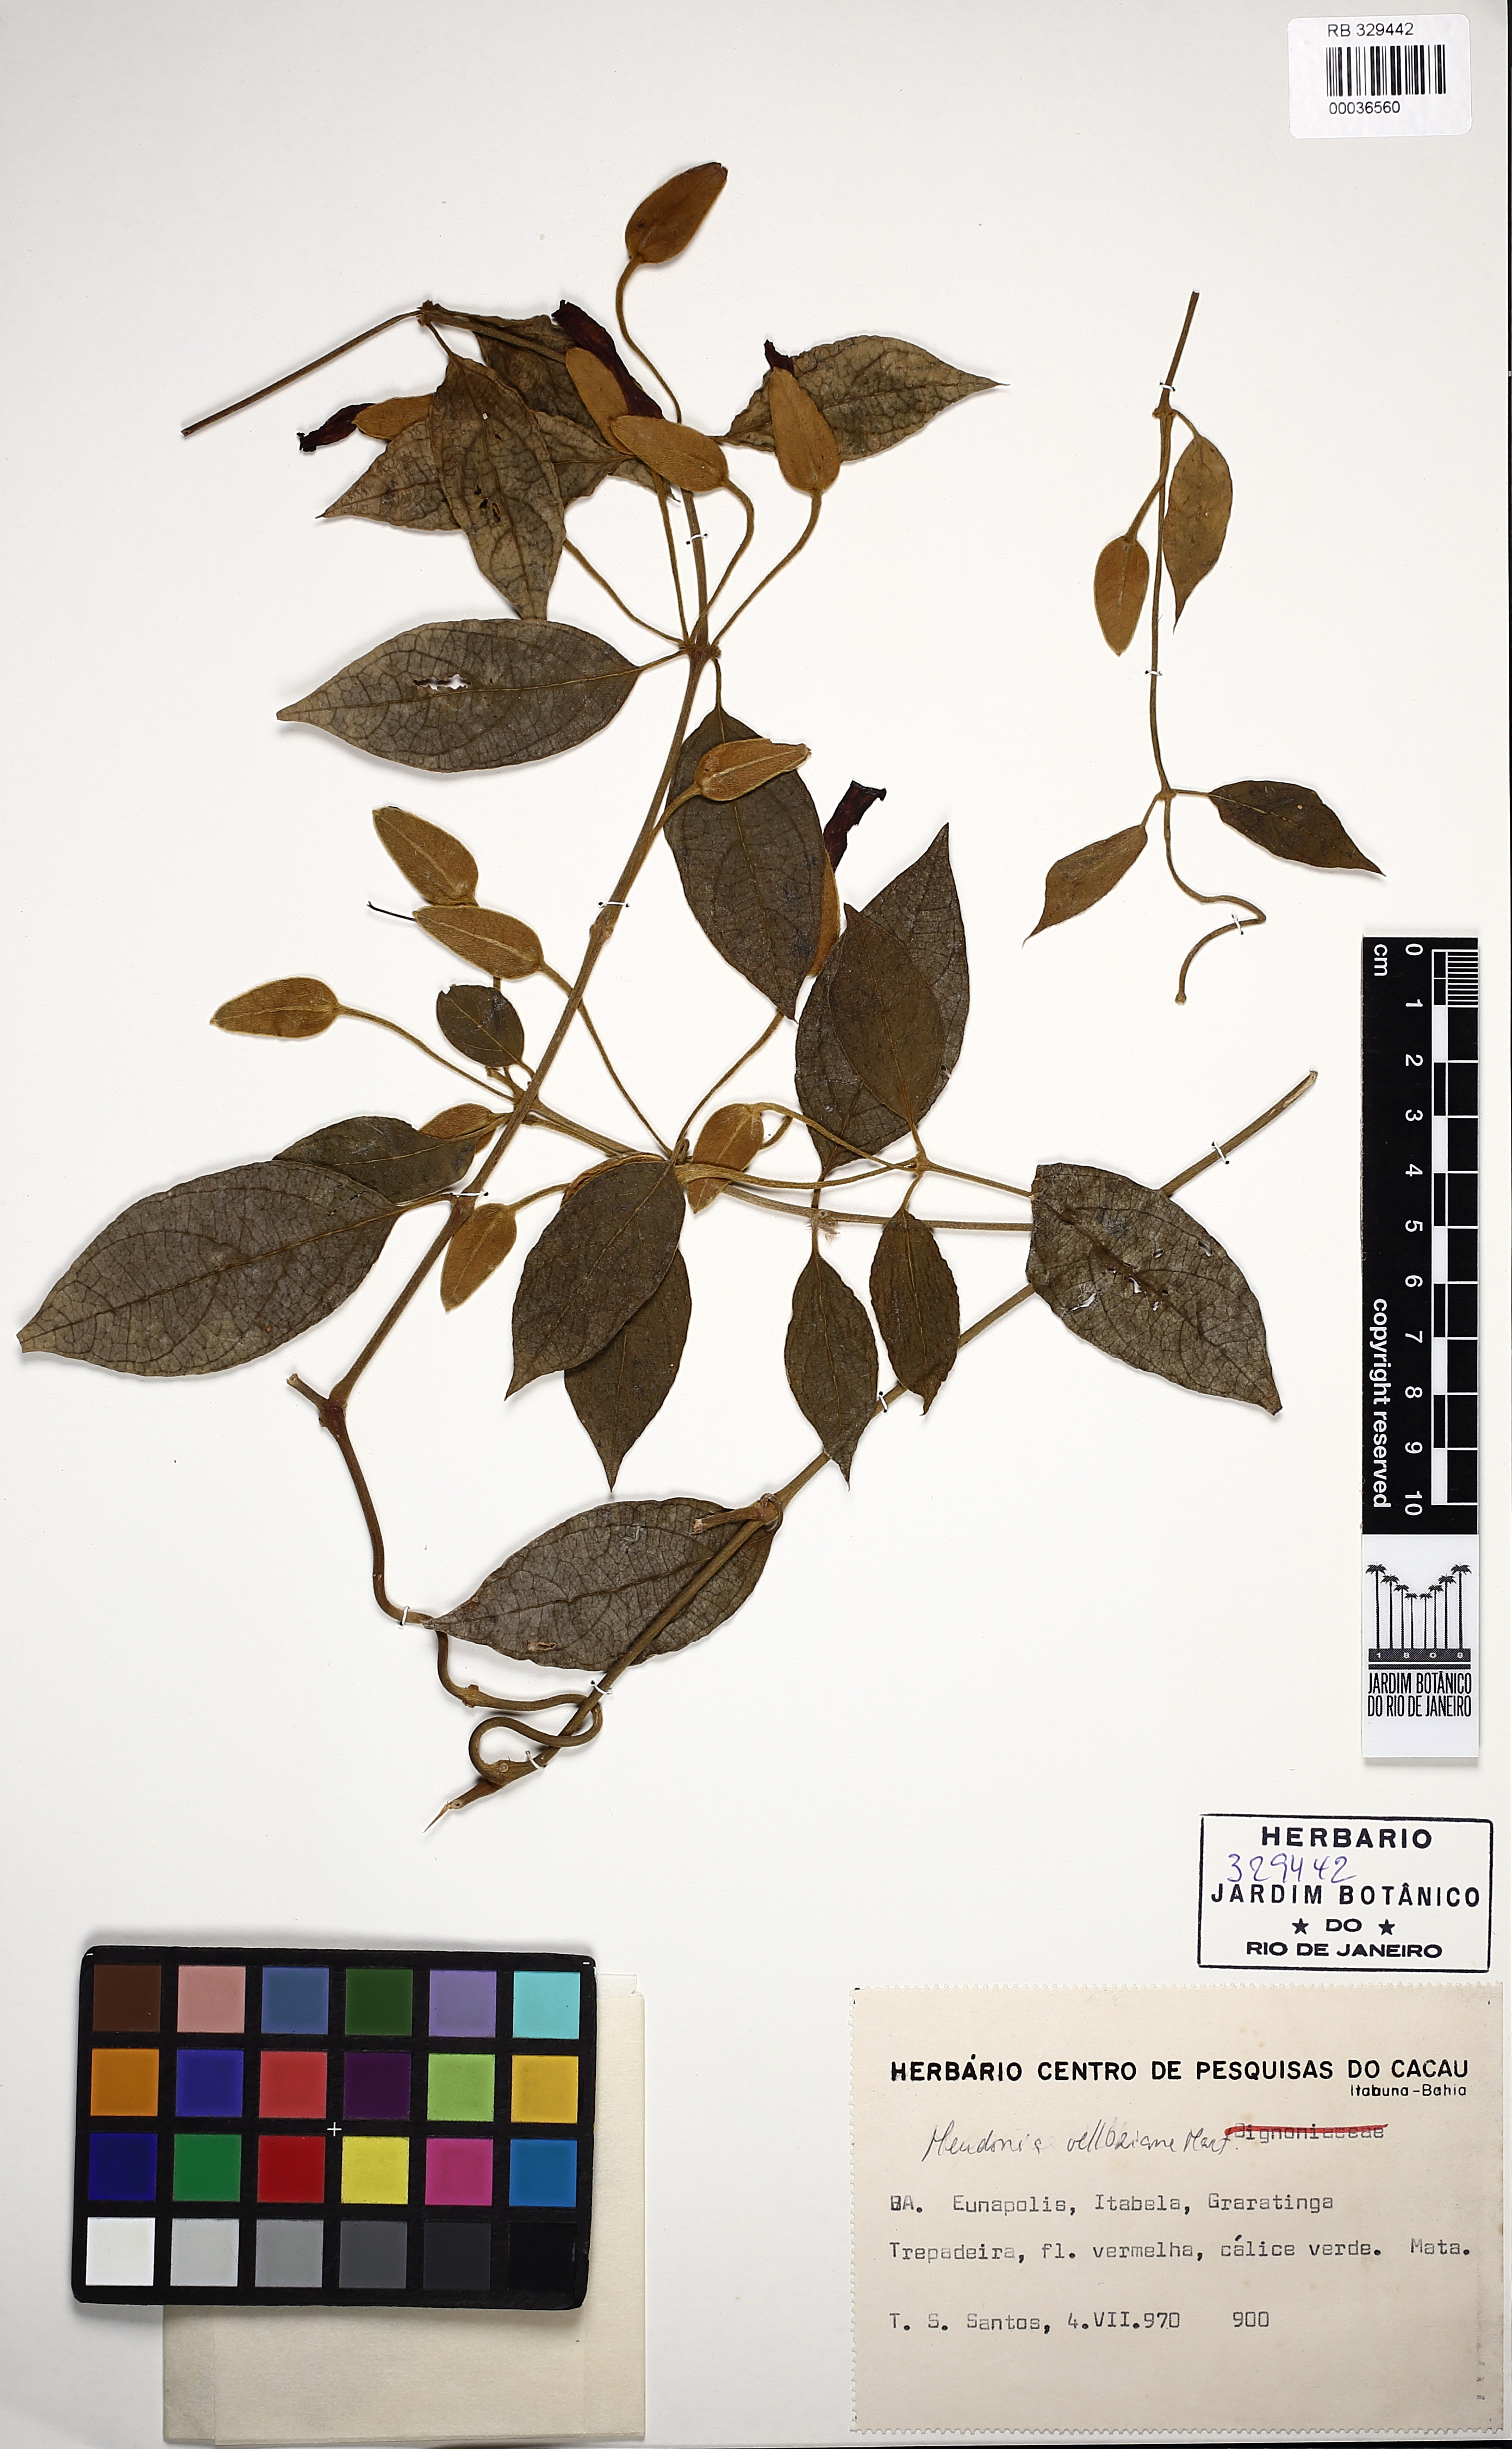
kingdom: Plantae
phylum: Tracheophyta
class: Magnoliopsida
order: Lamiales
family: Acanthaceae
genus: Mendoncia
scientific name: Mendoncia velloziana
